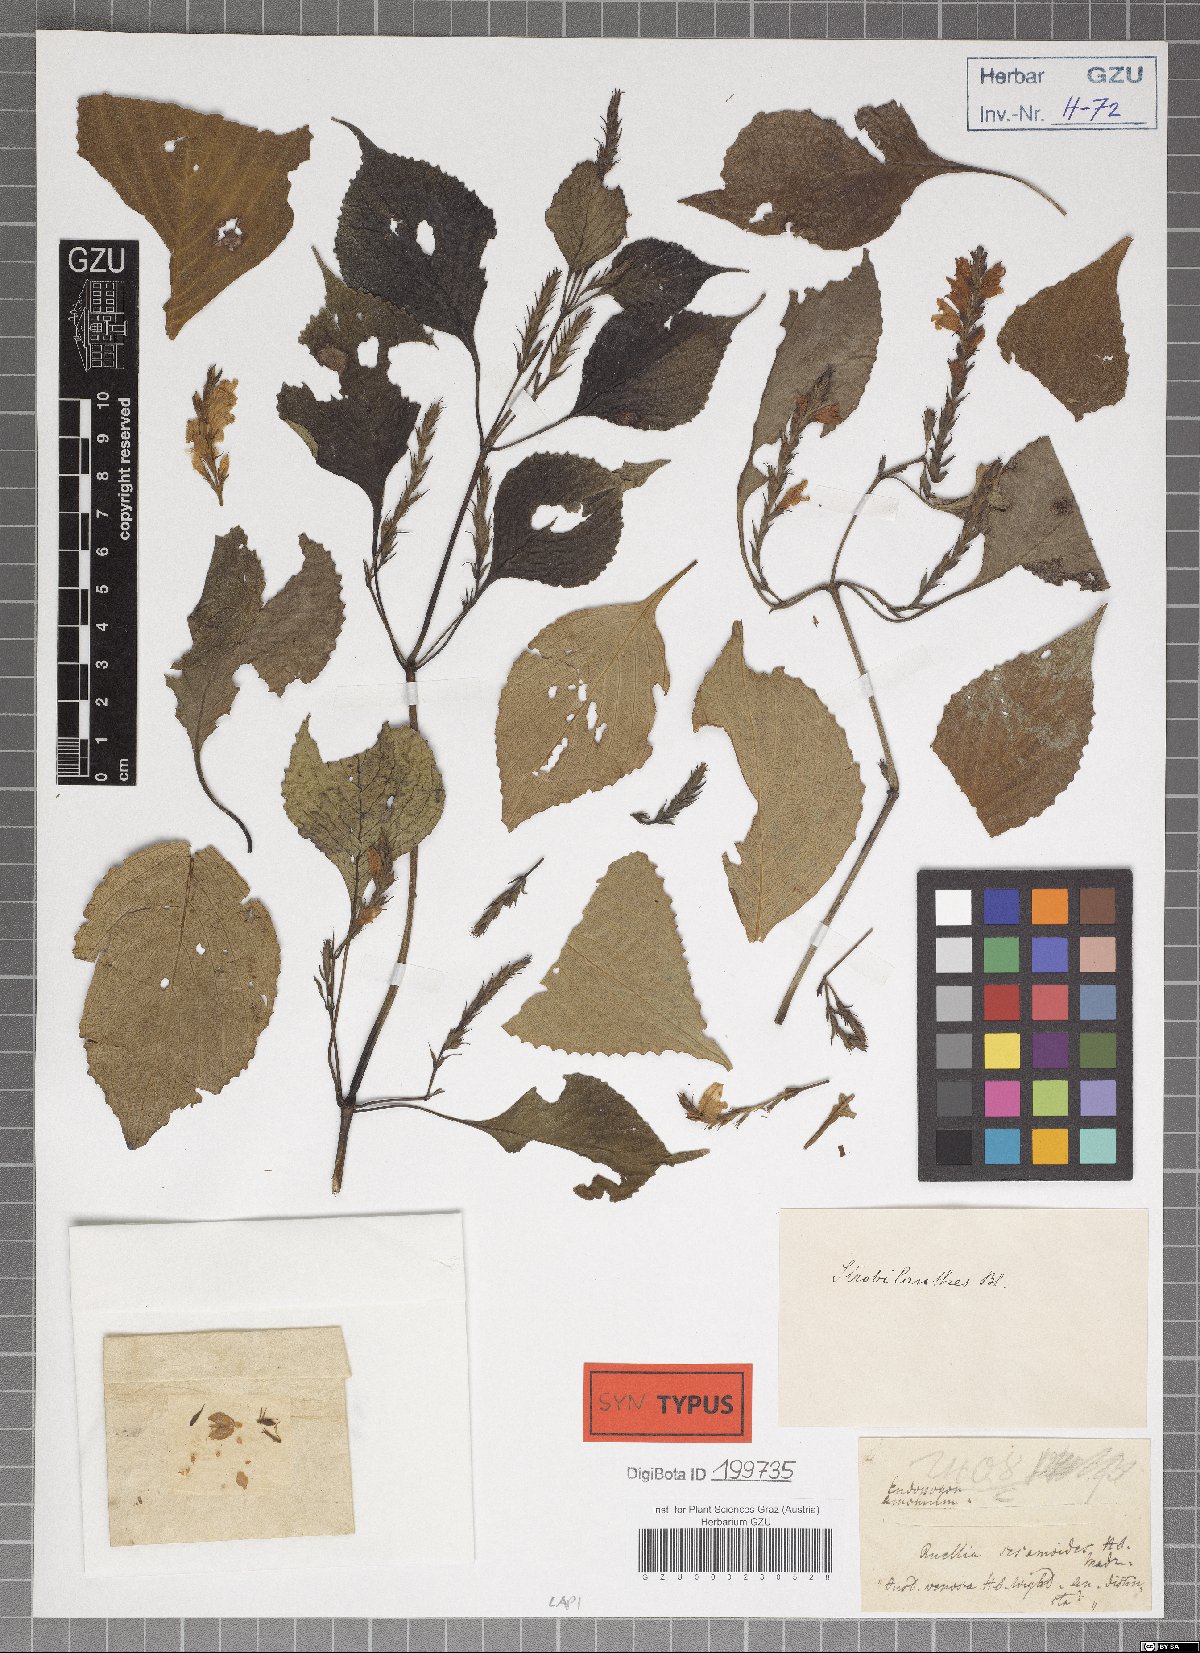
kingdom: Plantae
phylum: Tracheophyta
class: Magnoliopsida
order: Lamiales
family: Acanthaceae
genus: Strobilanthes
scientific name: Strobilanthes consanguinea
